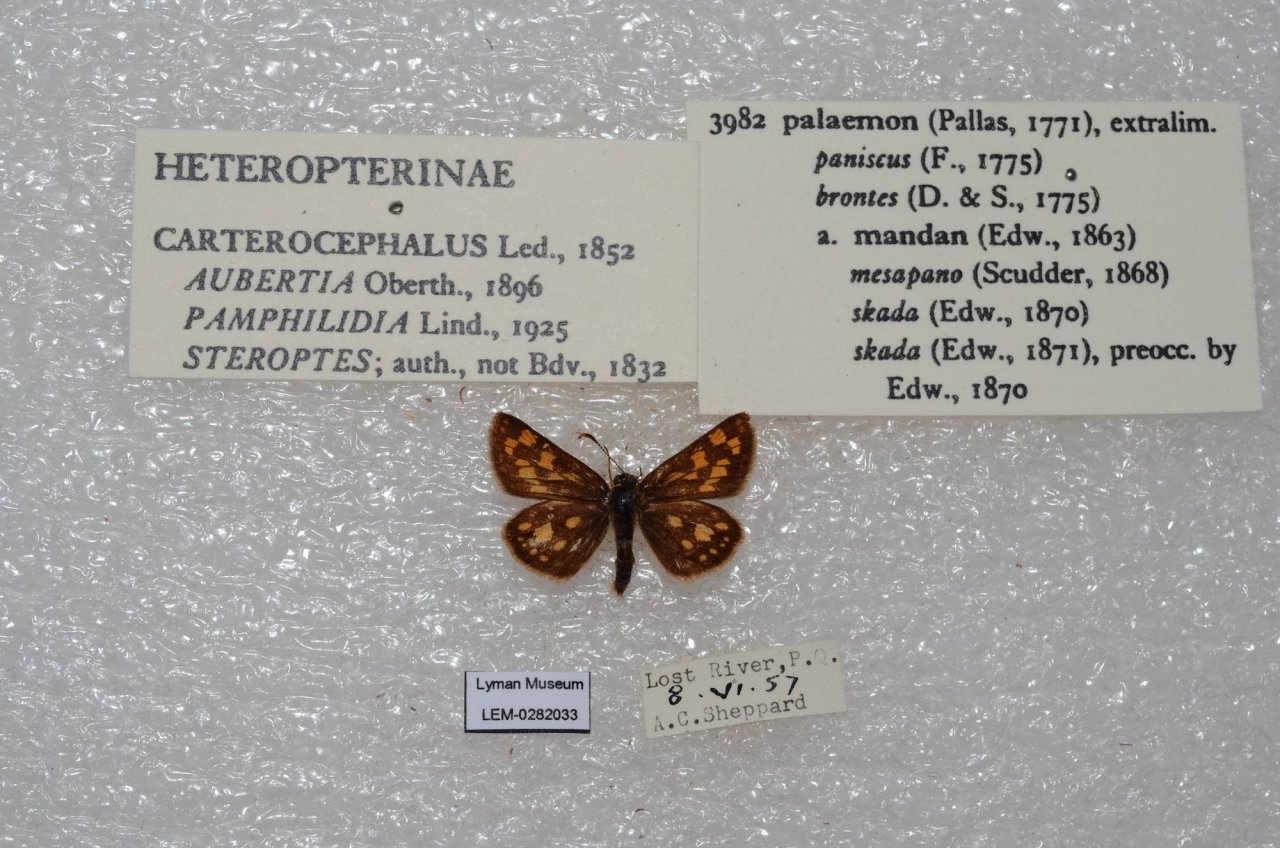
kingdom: Animalia
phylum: Arthropoda
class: Insecta
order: Lepidoptera
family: Hesperiidae
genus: Carterocephalus
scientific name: Carterocephalus palaemon
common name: Chequered Skipper
